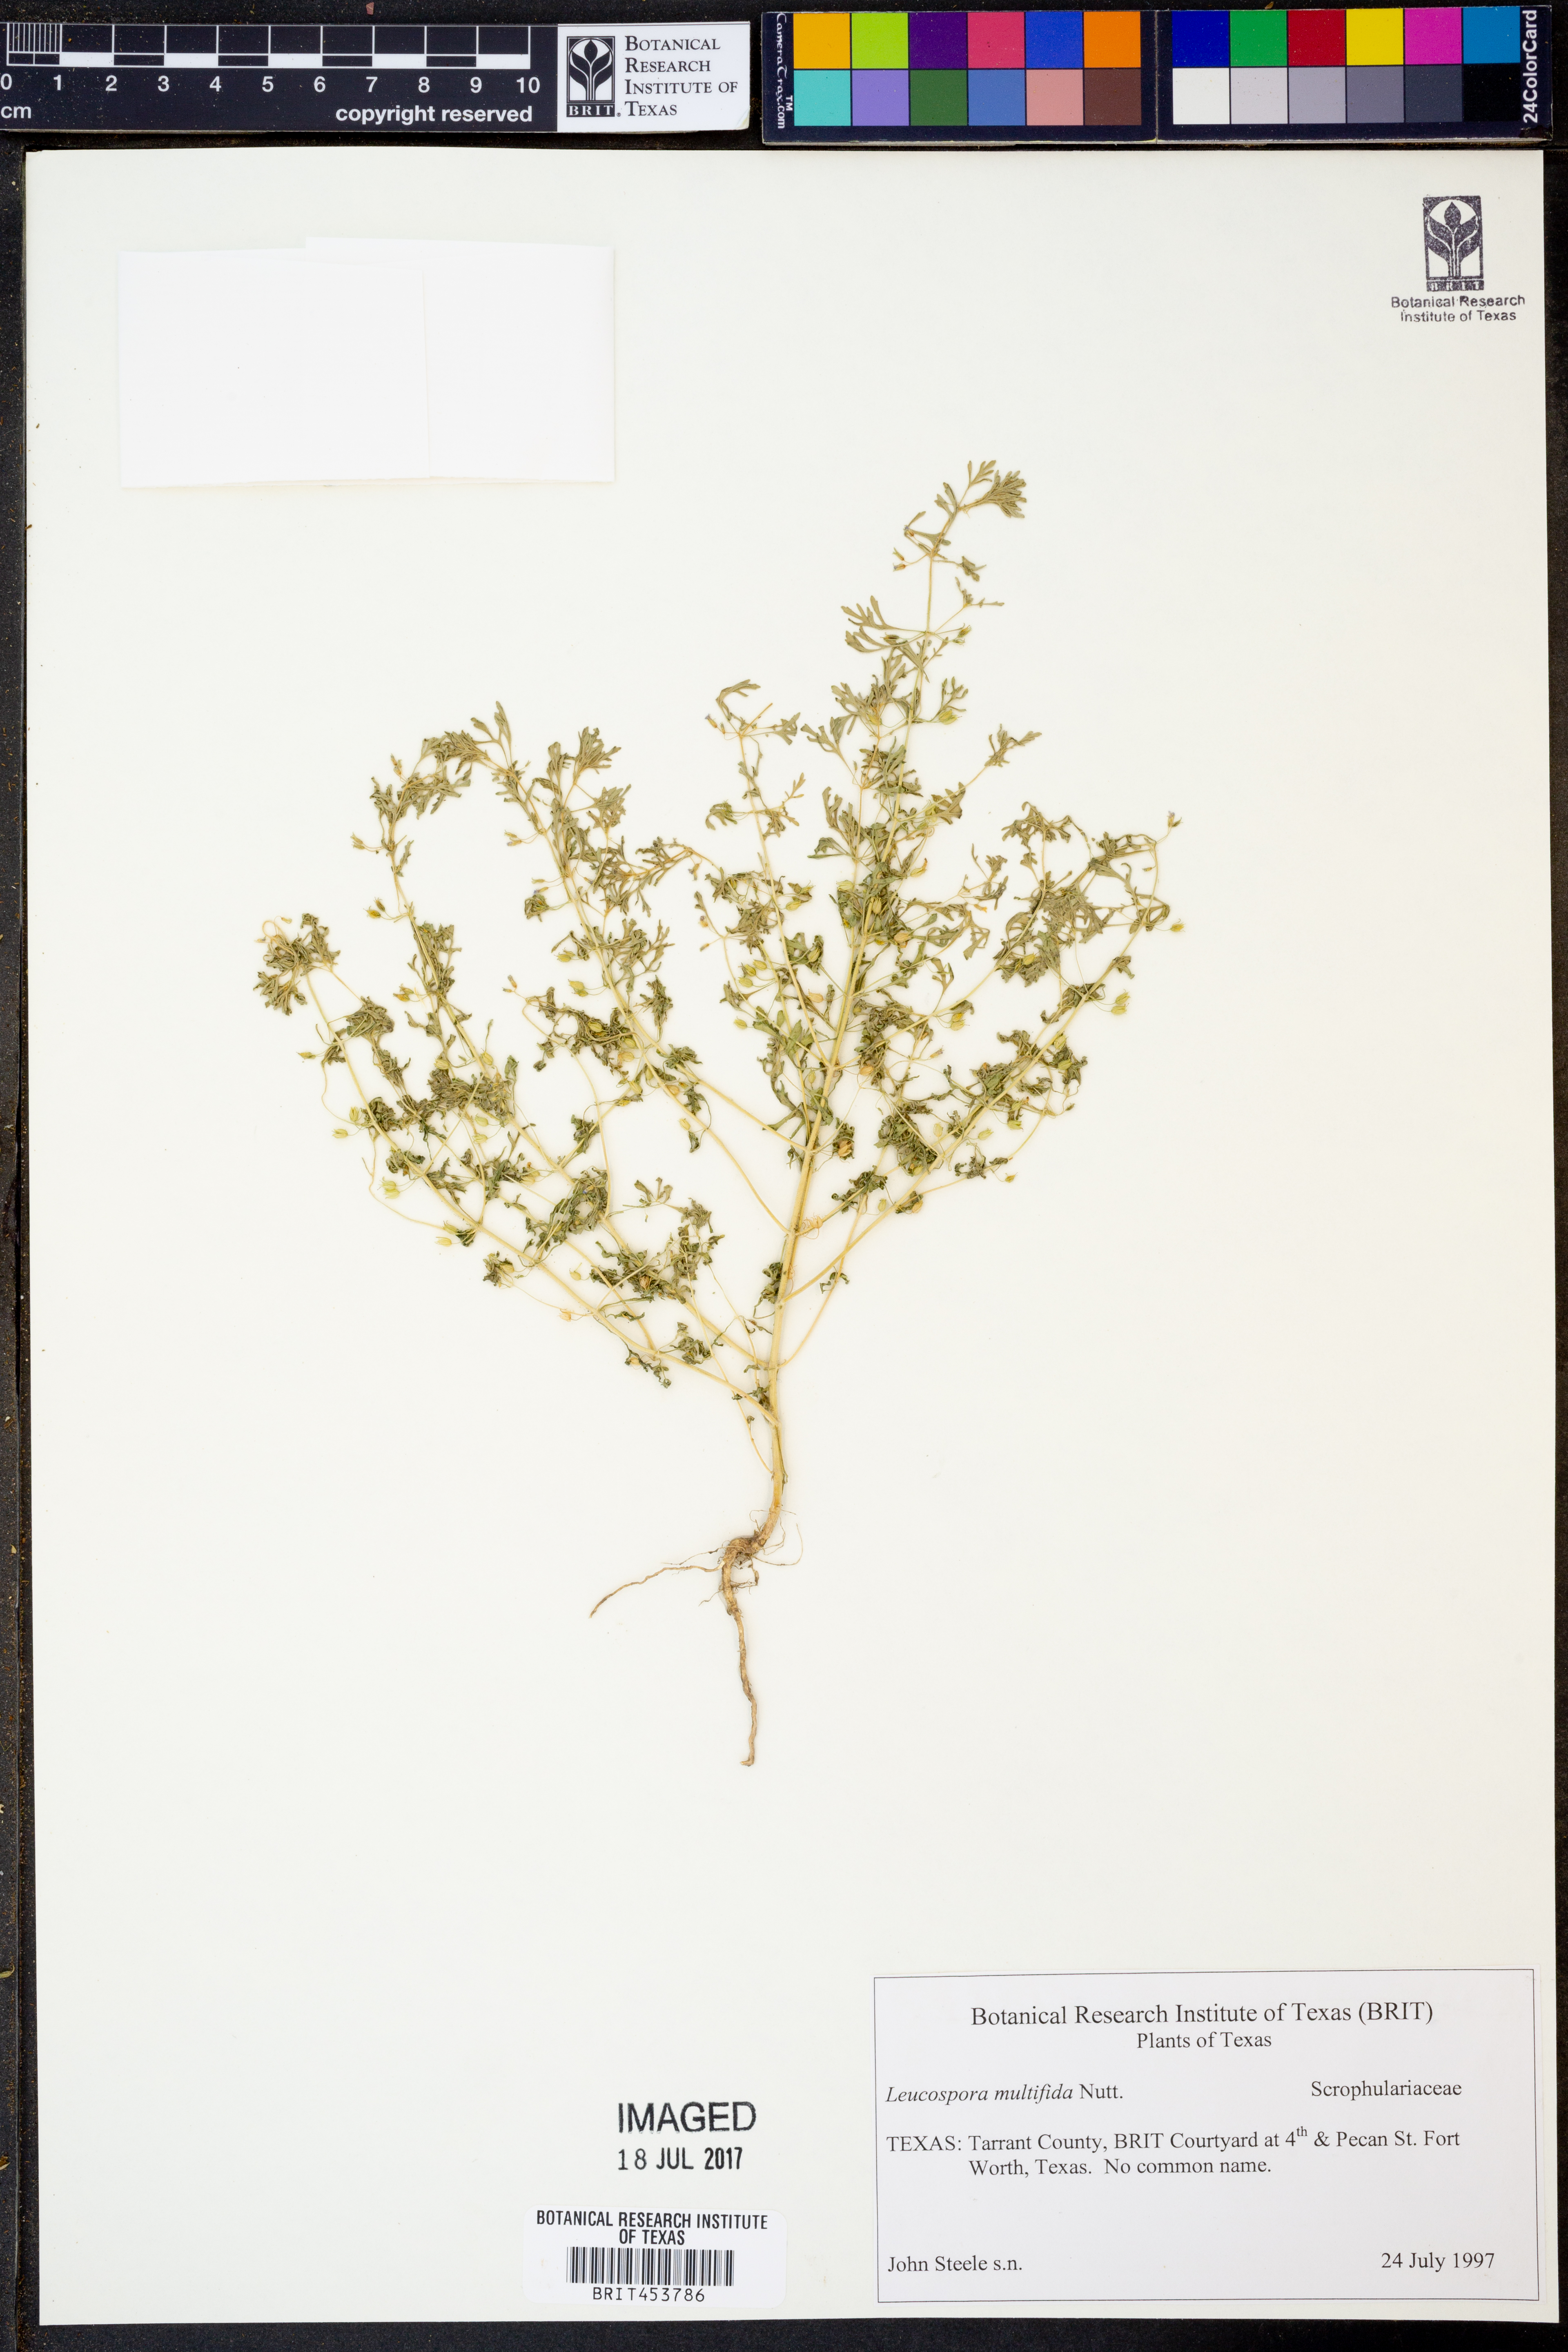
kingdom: Plantae
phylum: Tracheophyta
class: Magnoliopsida
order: Lamiales
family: Plantaginaceae
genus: Leucospora
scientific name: Leucospora multifida
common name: Narrow-leaf paleseed
